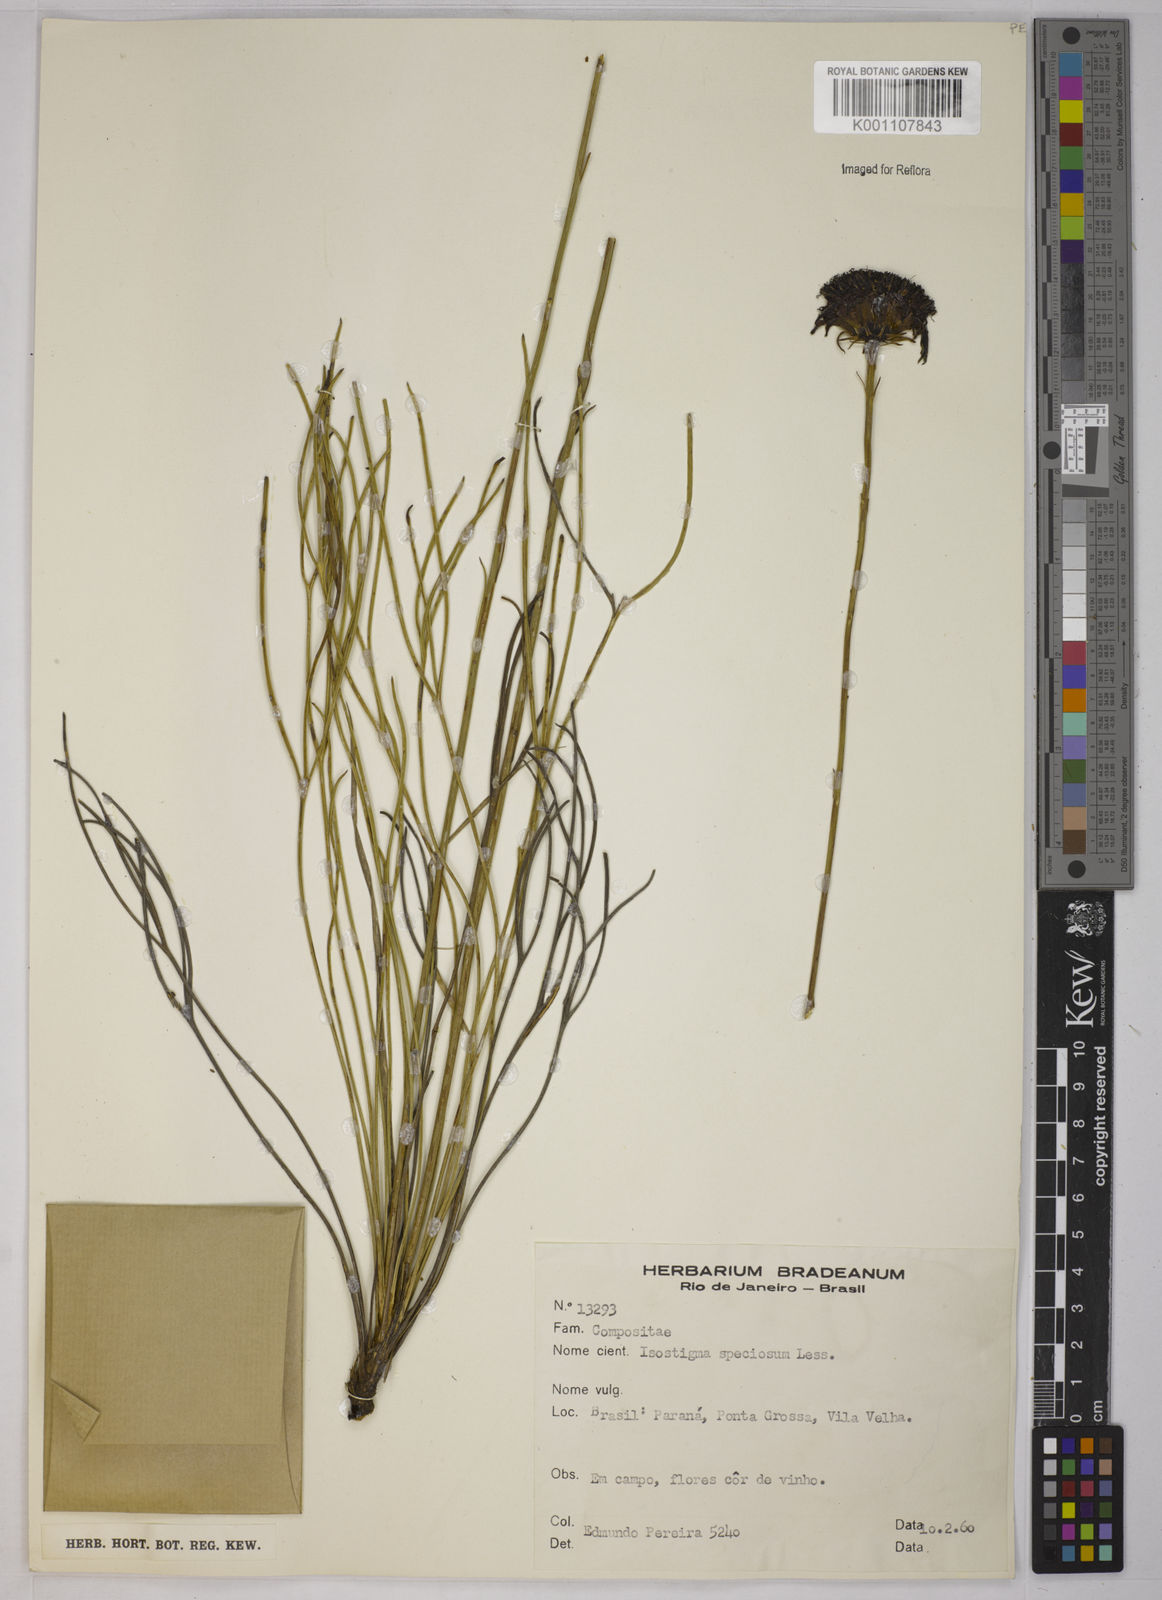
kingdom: Plantae
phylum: Tracheophyta
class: Magnoliopsida
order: Asterales
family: Asteraceae
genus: Isostigma
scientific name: Isostigma peucedanifolium
